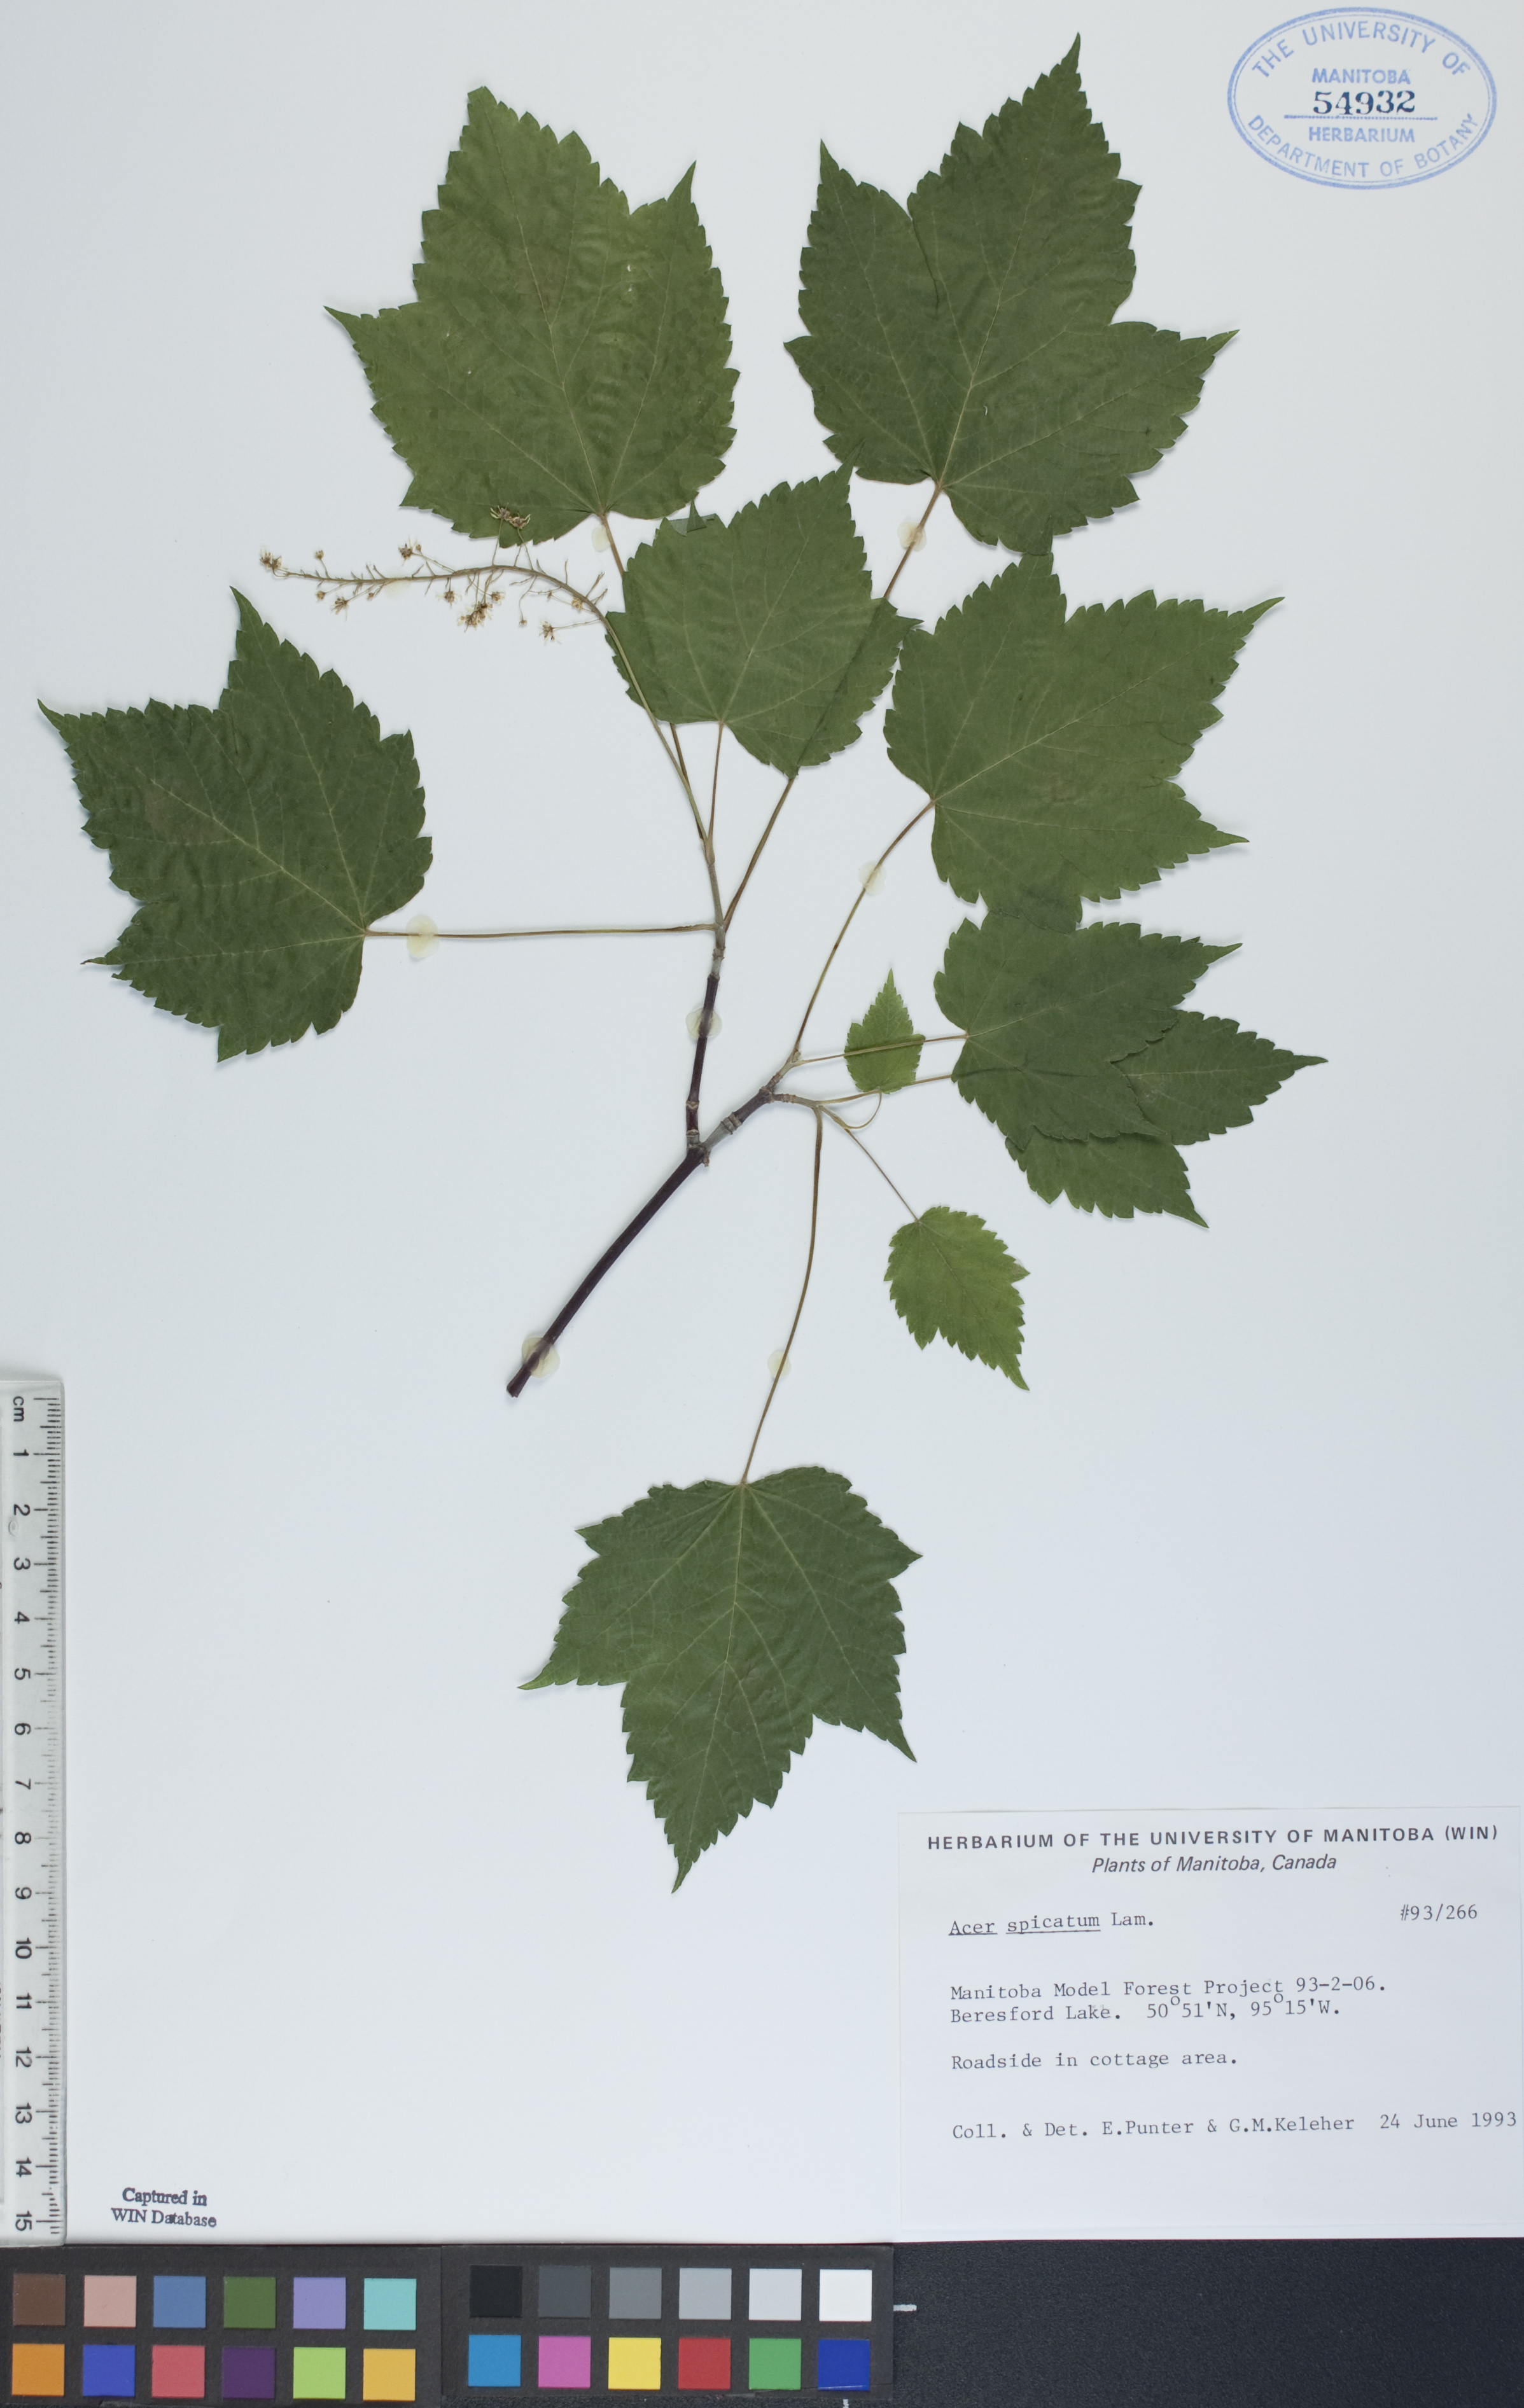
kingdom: Plantae
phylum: Tracheophyta
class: Magnoliopsida
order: Sapindales
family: Sapindaceae
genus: Acer
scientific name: Acer spicatum
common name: Mountain maple
